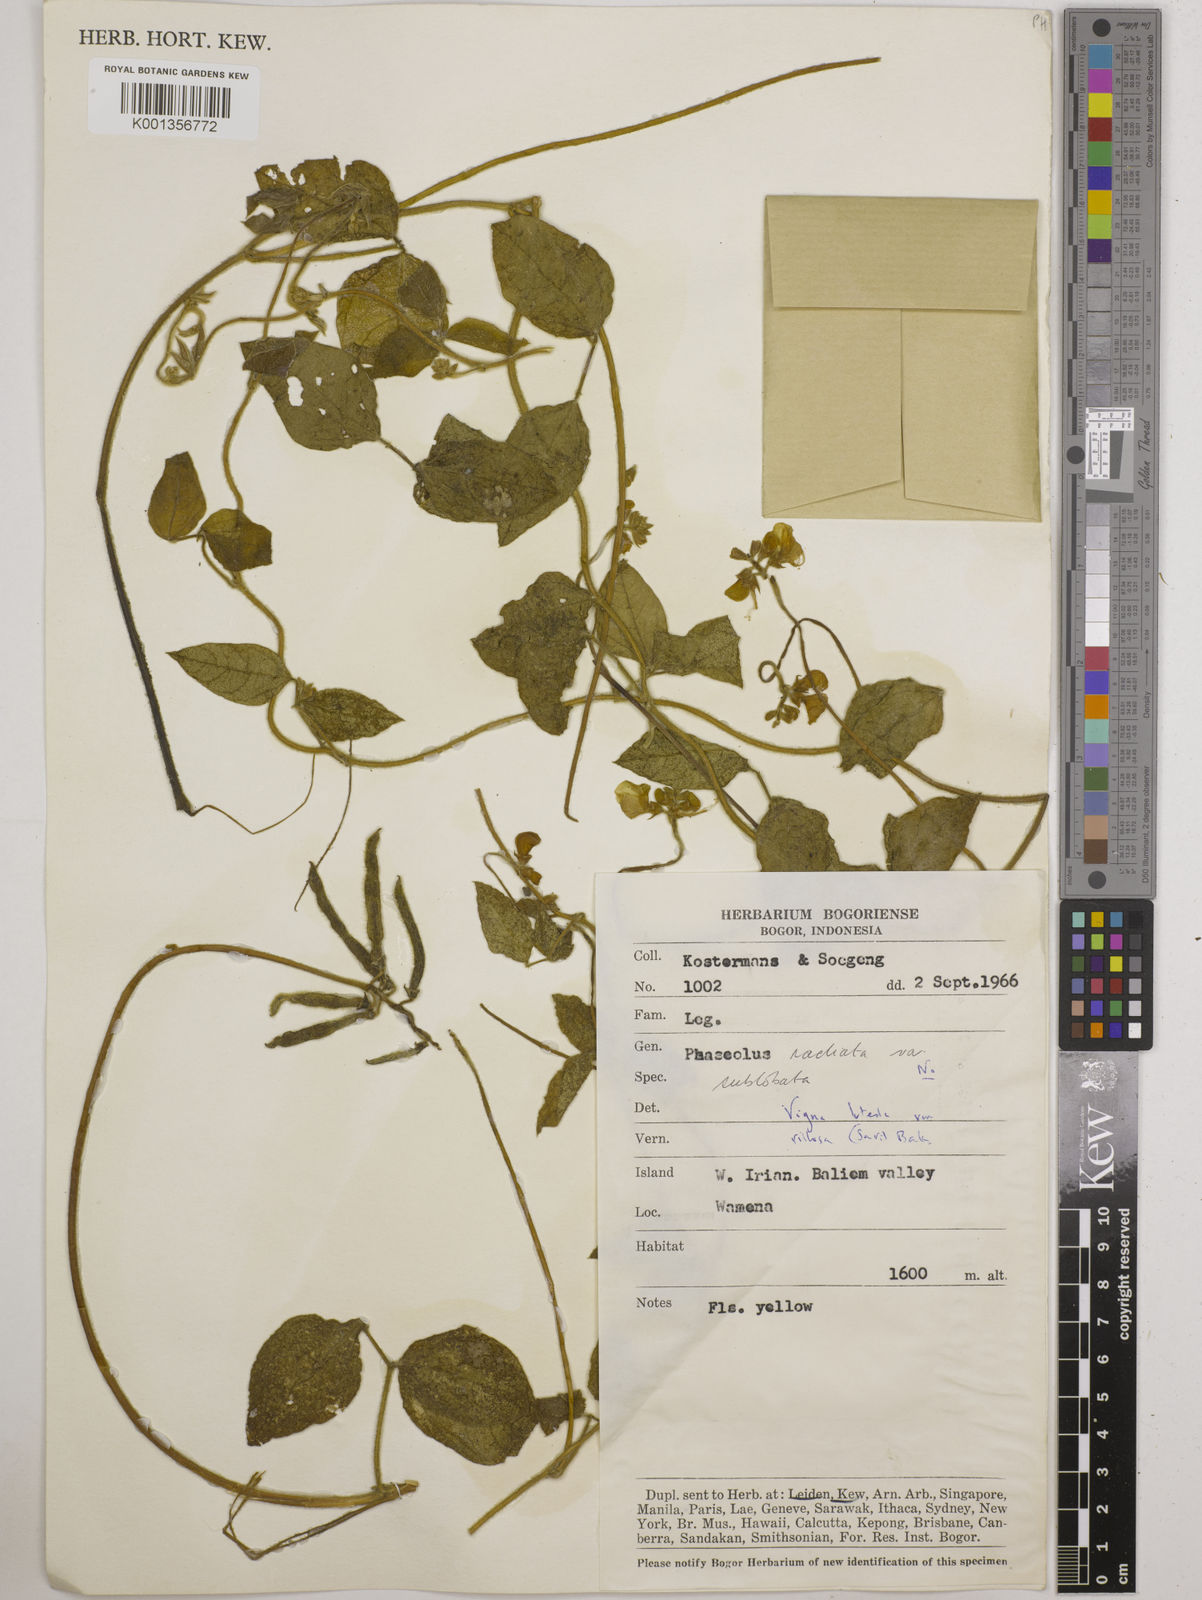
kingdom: Plantae
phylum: Tracheophyta
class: Magnoliopsida
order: Fabales
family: Fabaceae
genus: Vigna
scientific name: Vigna luteola
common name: Hairypod cowpea
